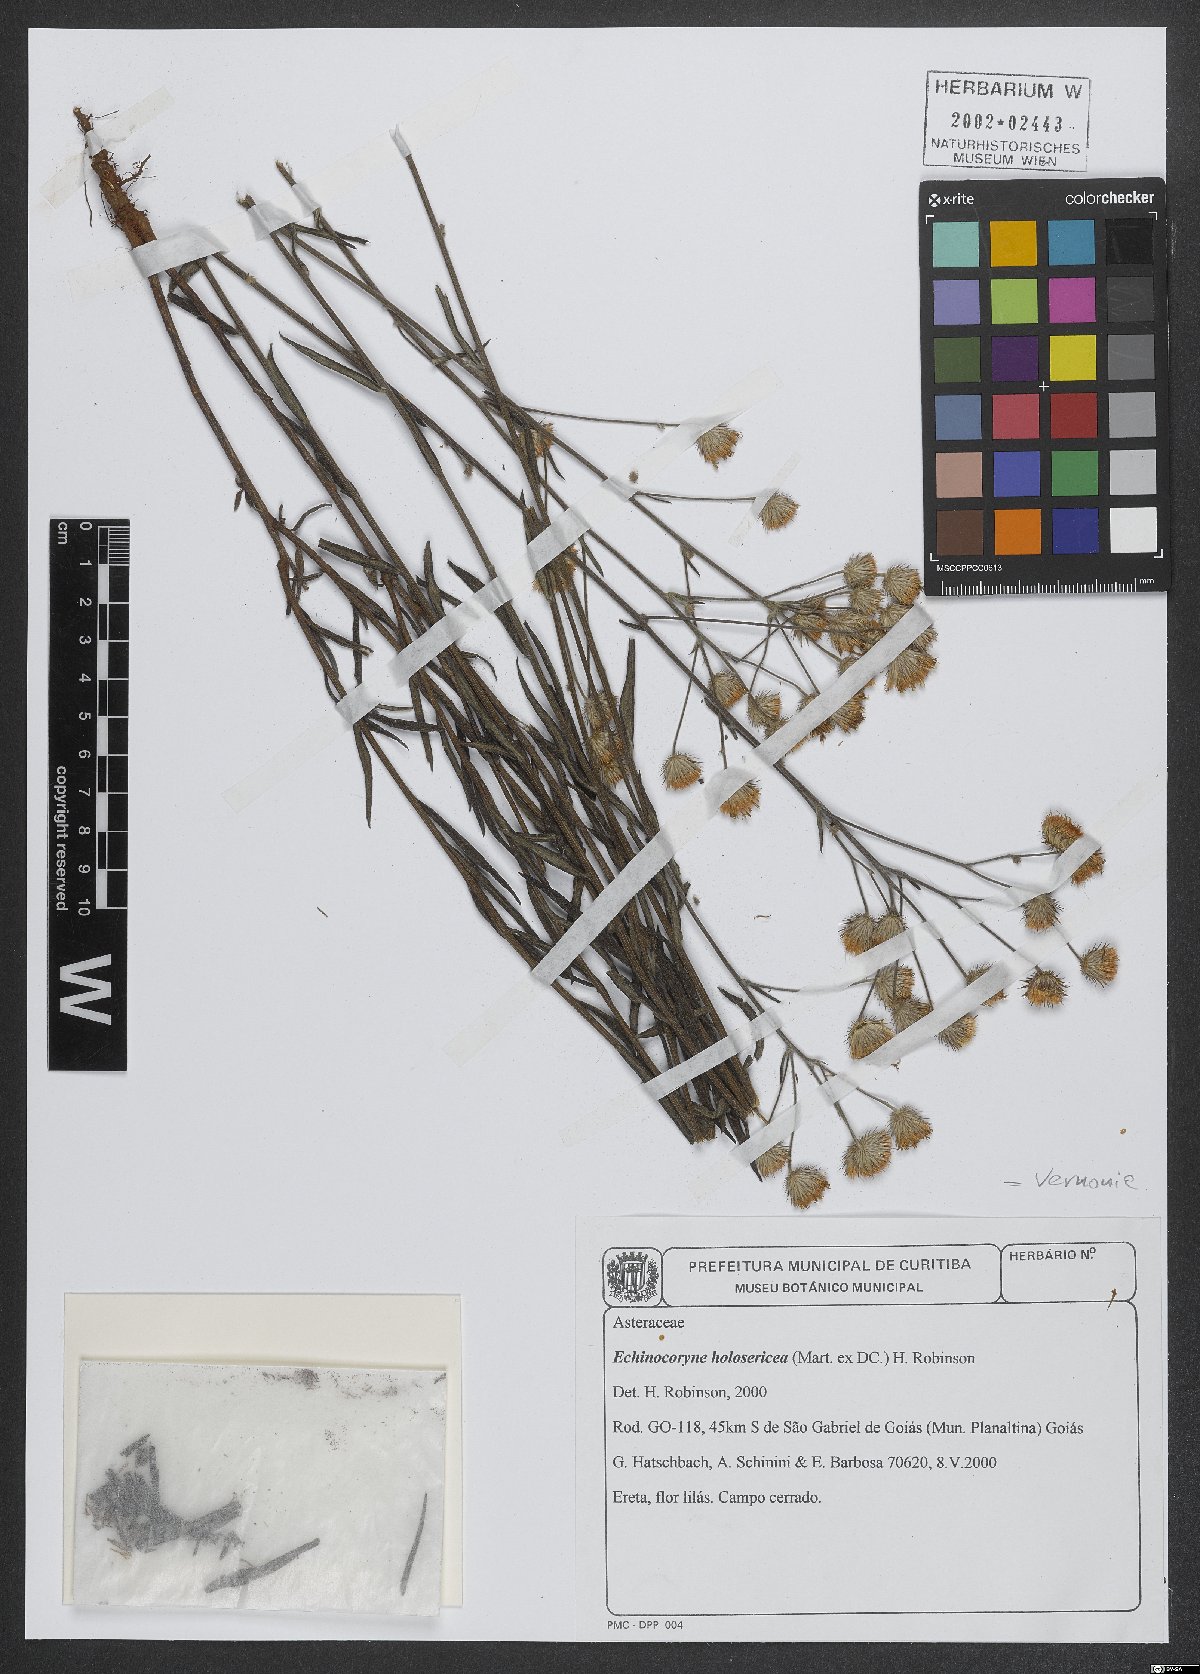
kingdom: Plantae
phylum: Tracheophyta
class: Magnoliopsida
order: Asterales
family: Asteraceae
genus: Echinocoryne
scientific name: Echinocoryne holosericea
